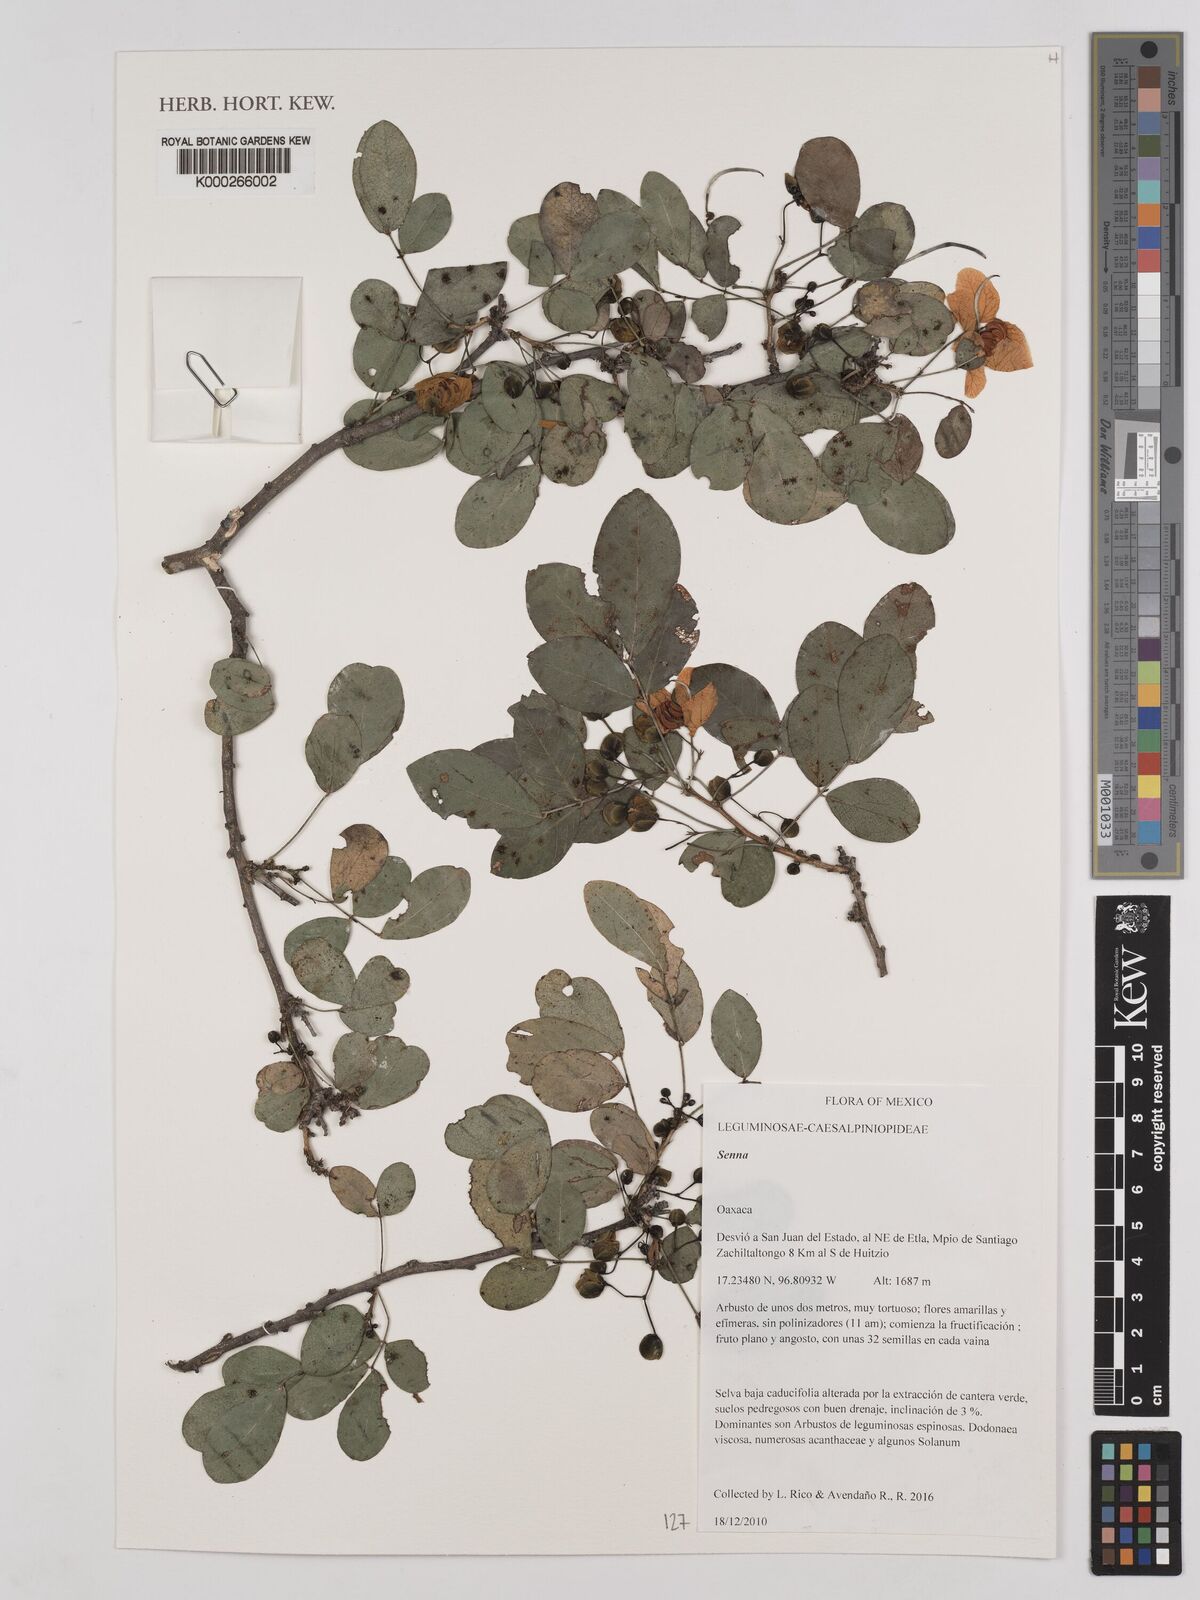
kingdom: Plantae
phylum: Tracheophyta
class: Magnoliopsida
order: Fabales
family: Fabaceae
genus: Senna
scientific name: Senna
